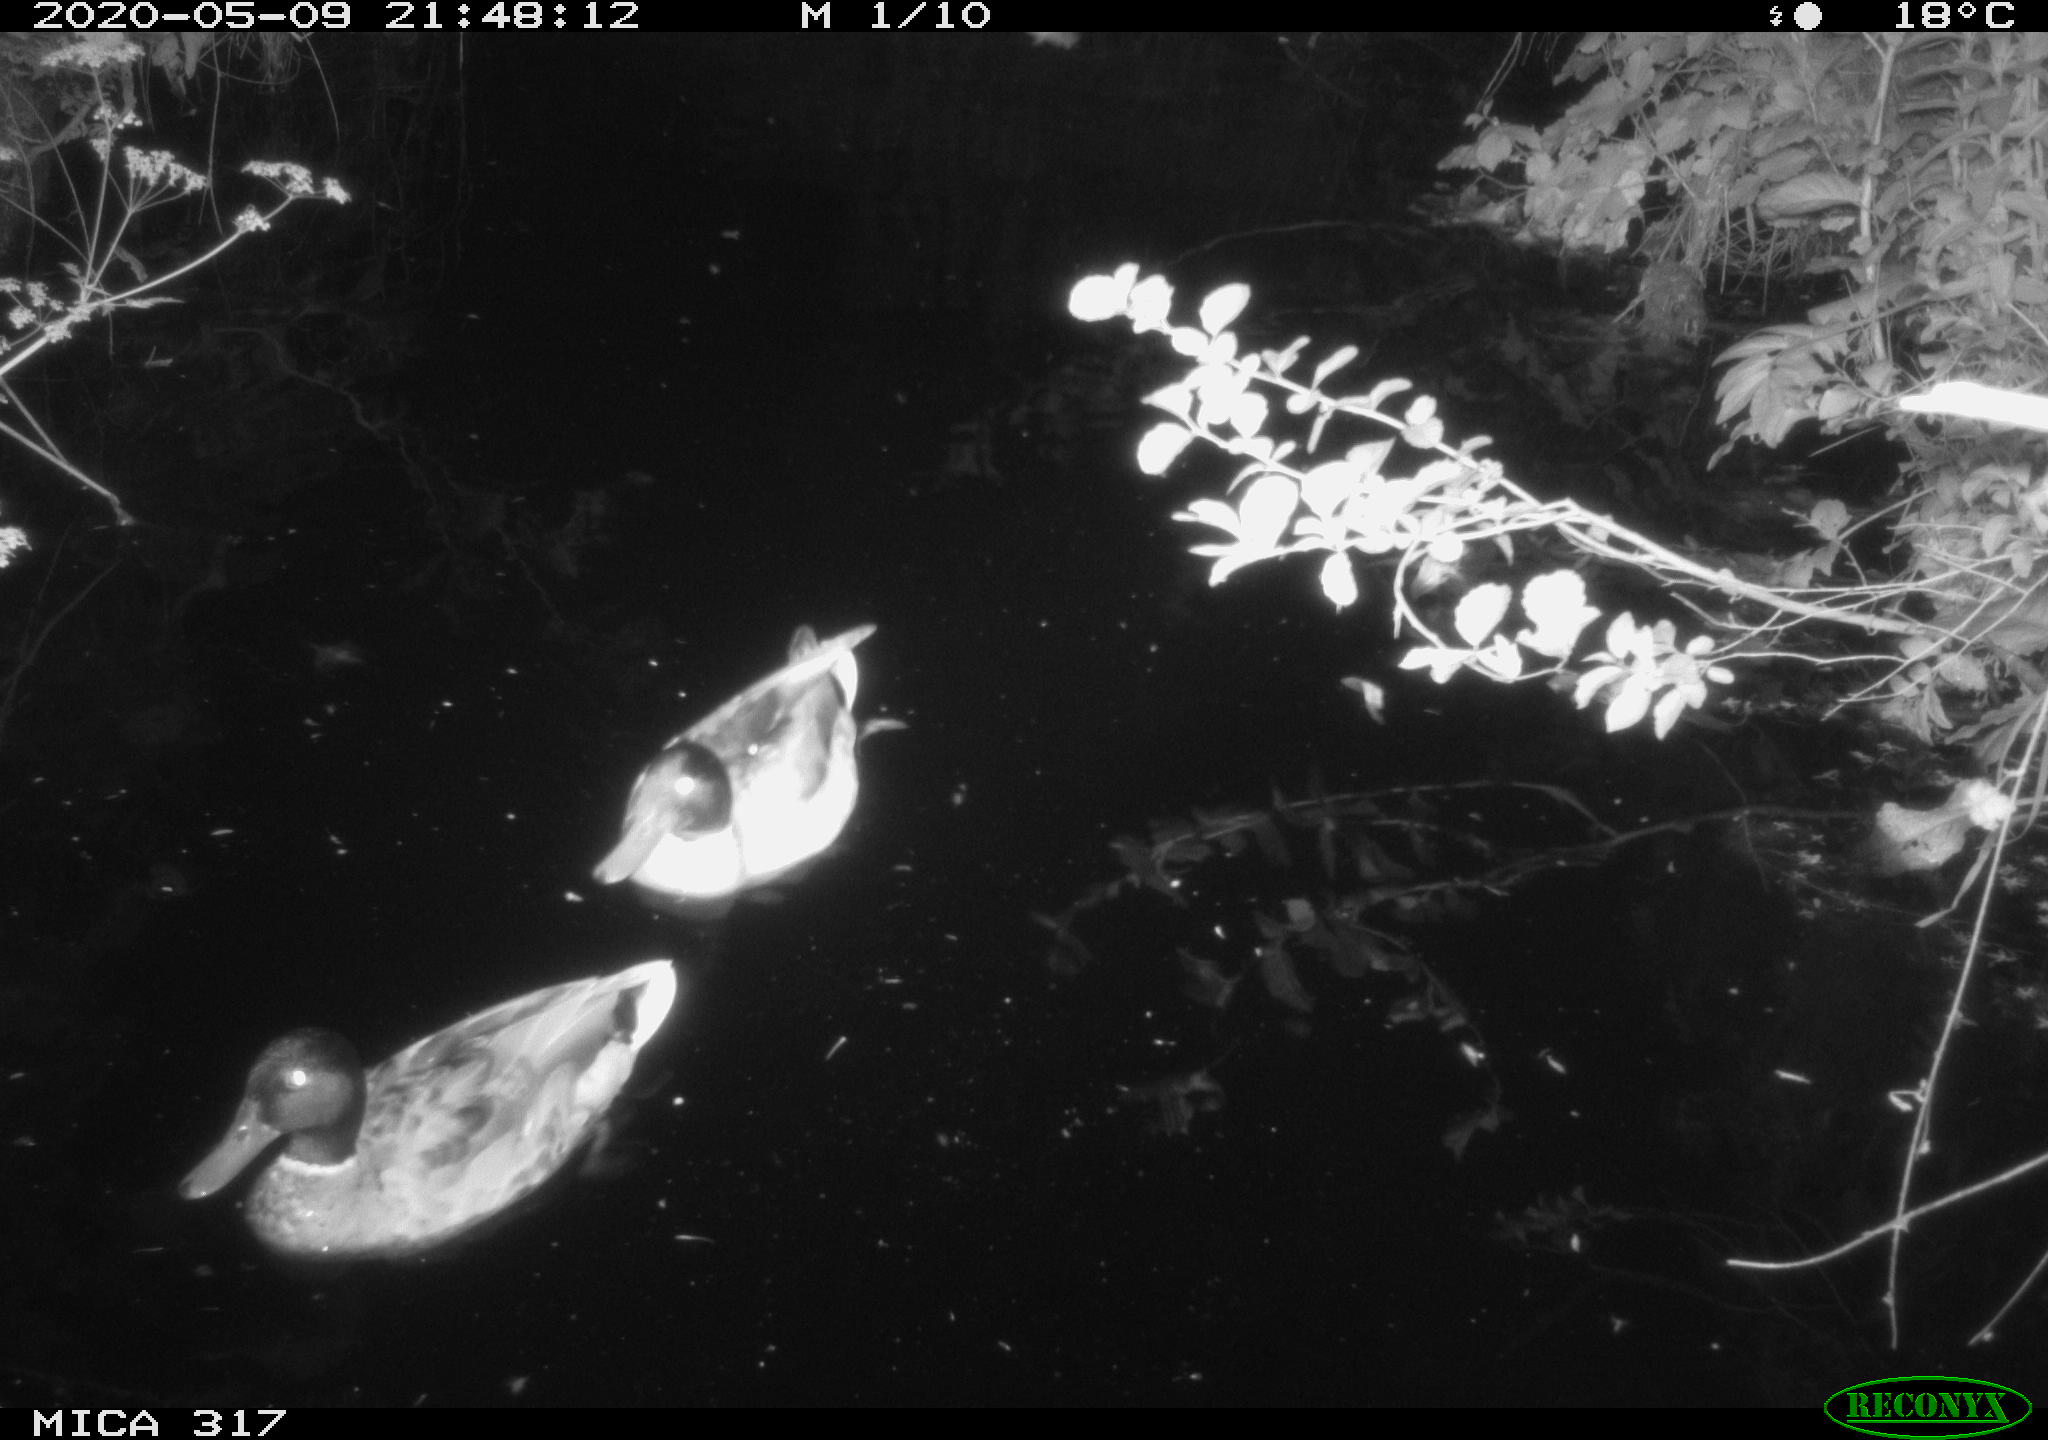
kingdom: Animalia
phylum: Chordata
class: Aves
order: Anseriformes
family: Anatidae
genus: Anas
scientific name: Anas platyrhynchos
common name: Mallard
